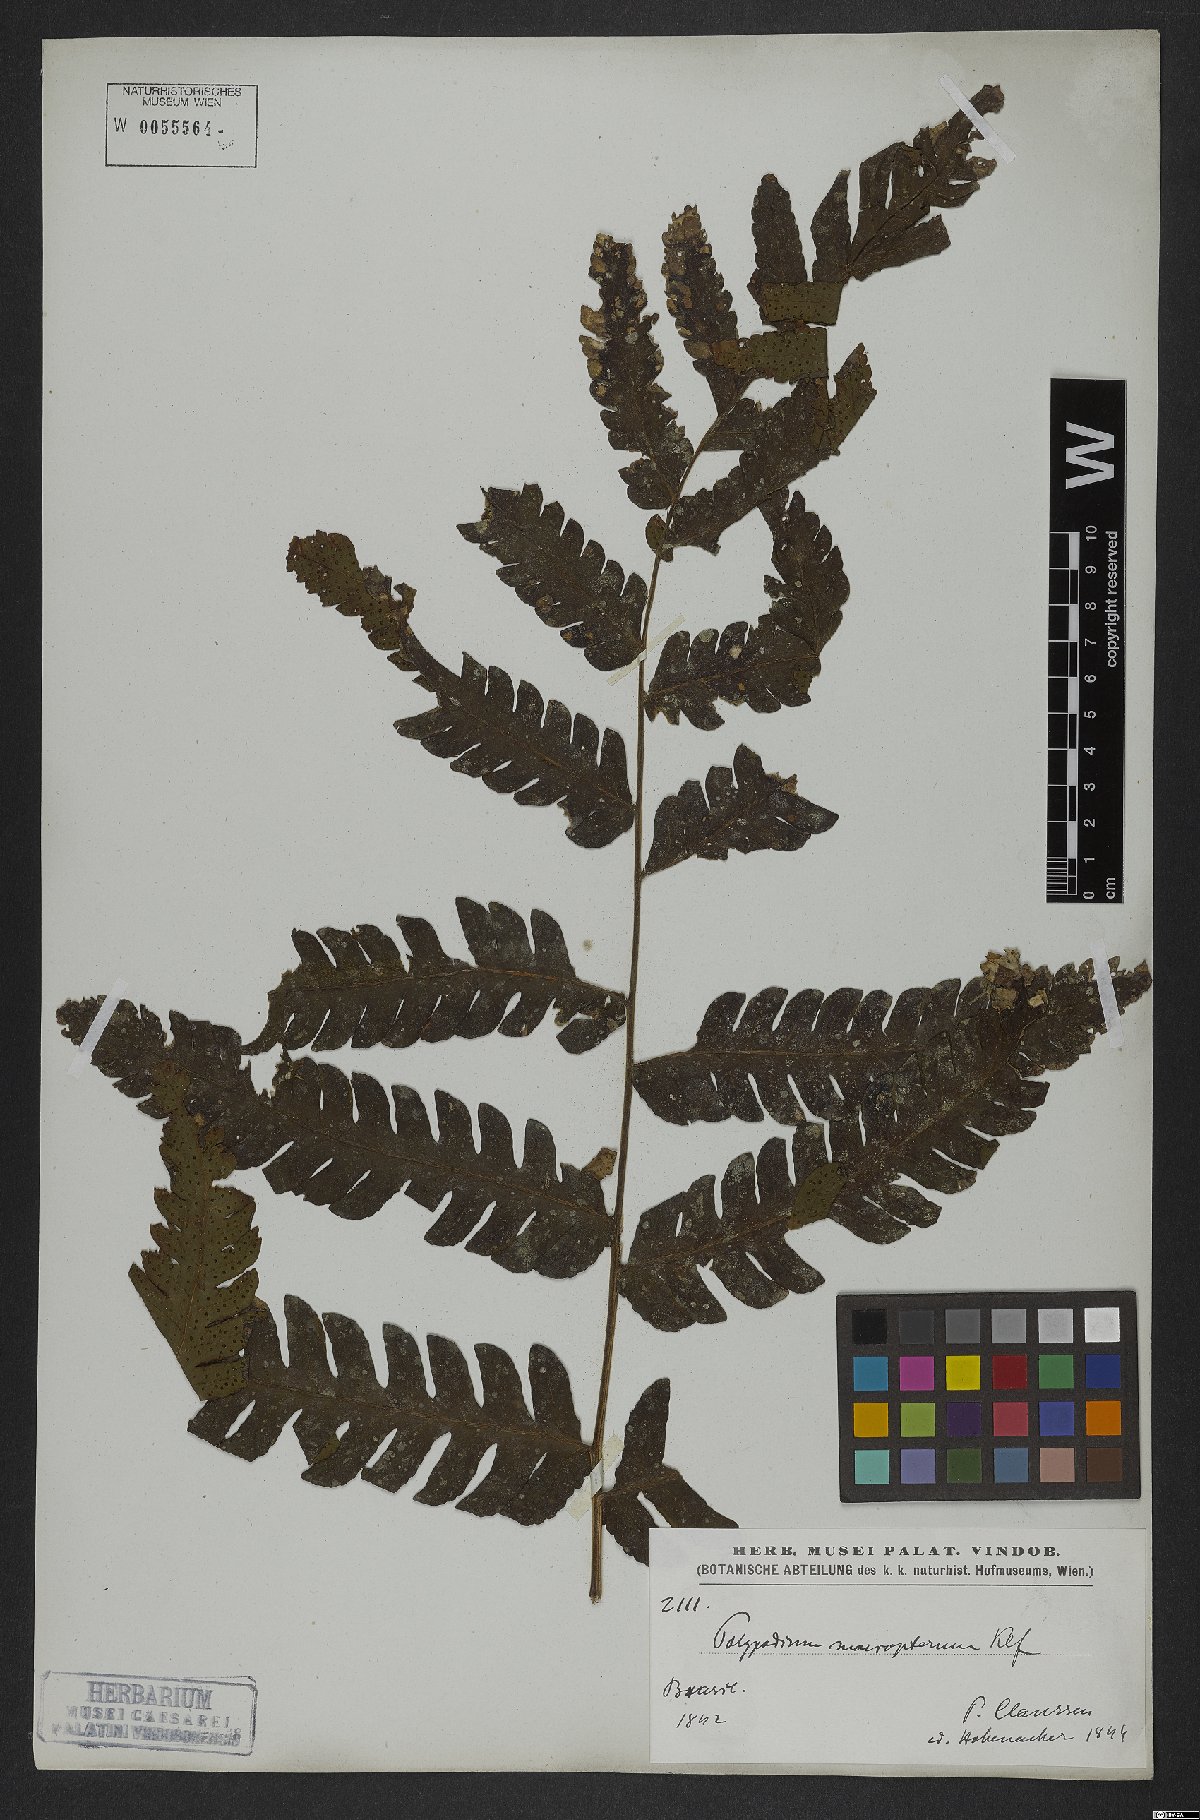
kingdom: Plantae
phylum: Tracheophyta
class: Polypodiopsida
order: Polypodiales
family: Dryopteridaceae
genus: Megalastrum
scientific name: Megalastrum grande
